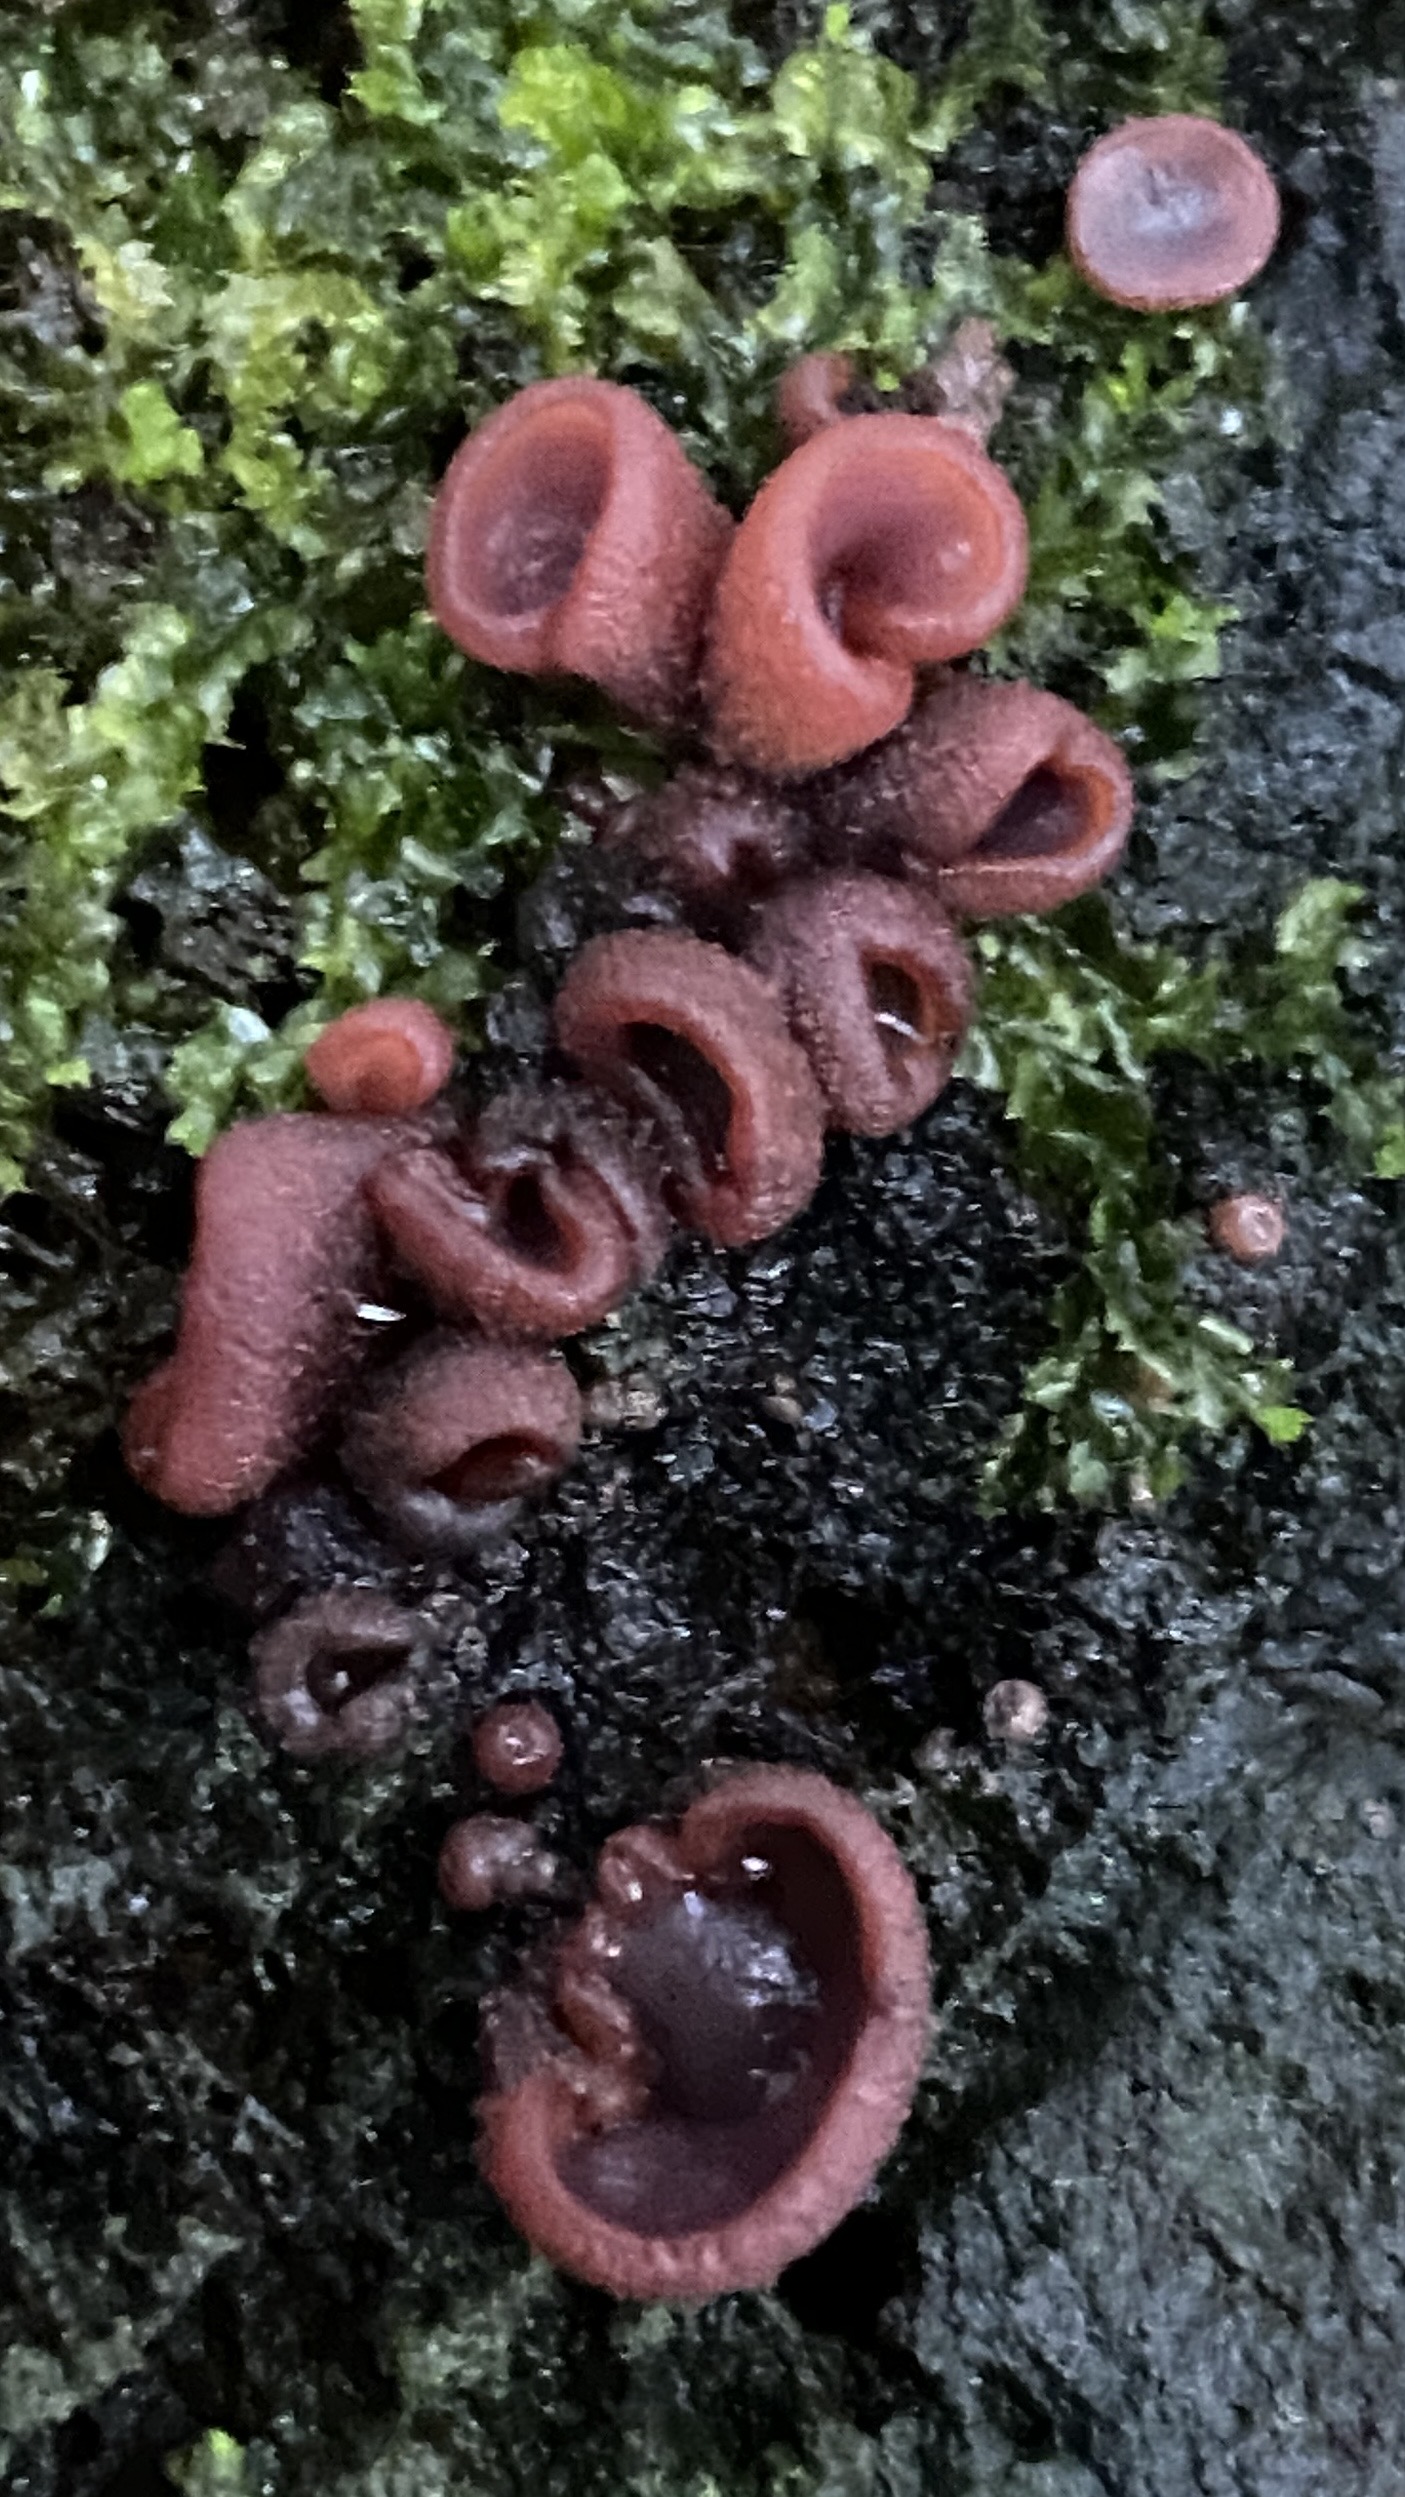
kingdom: Fungi
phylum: Ascomycota
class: Leotiomycetes
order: Helotiales
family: Gelatinodiscaceae
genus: Ascocoryne
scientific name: Ascocoryne cylichnium
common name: stor sejskive
